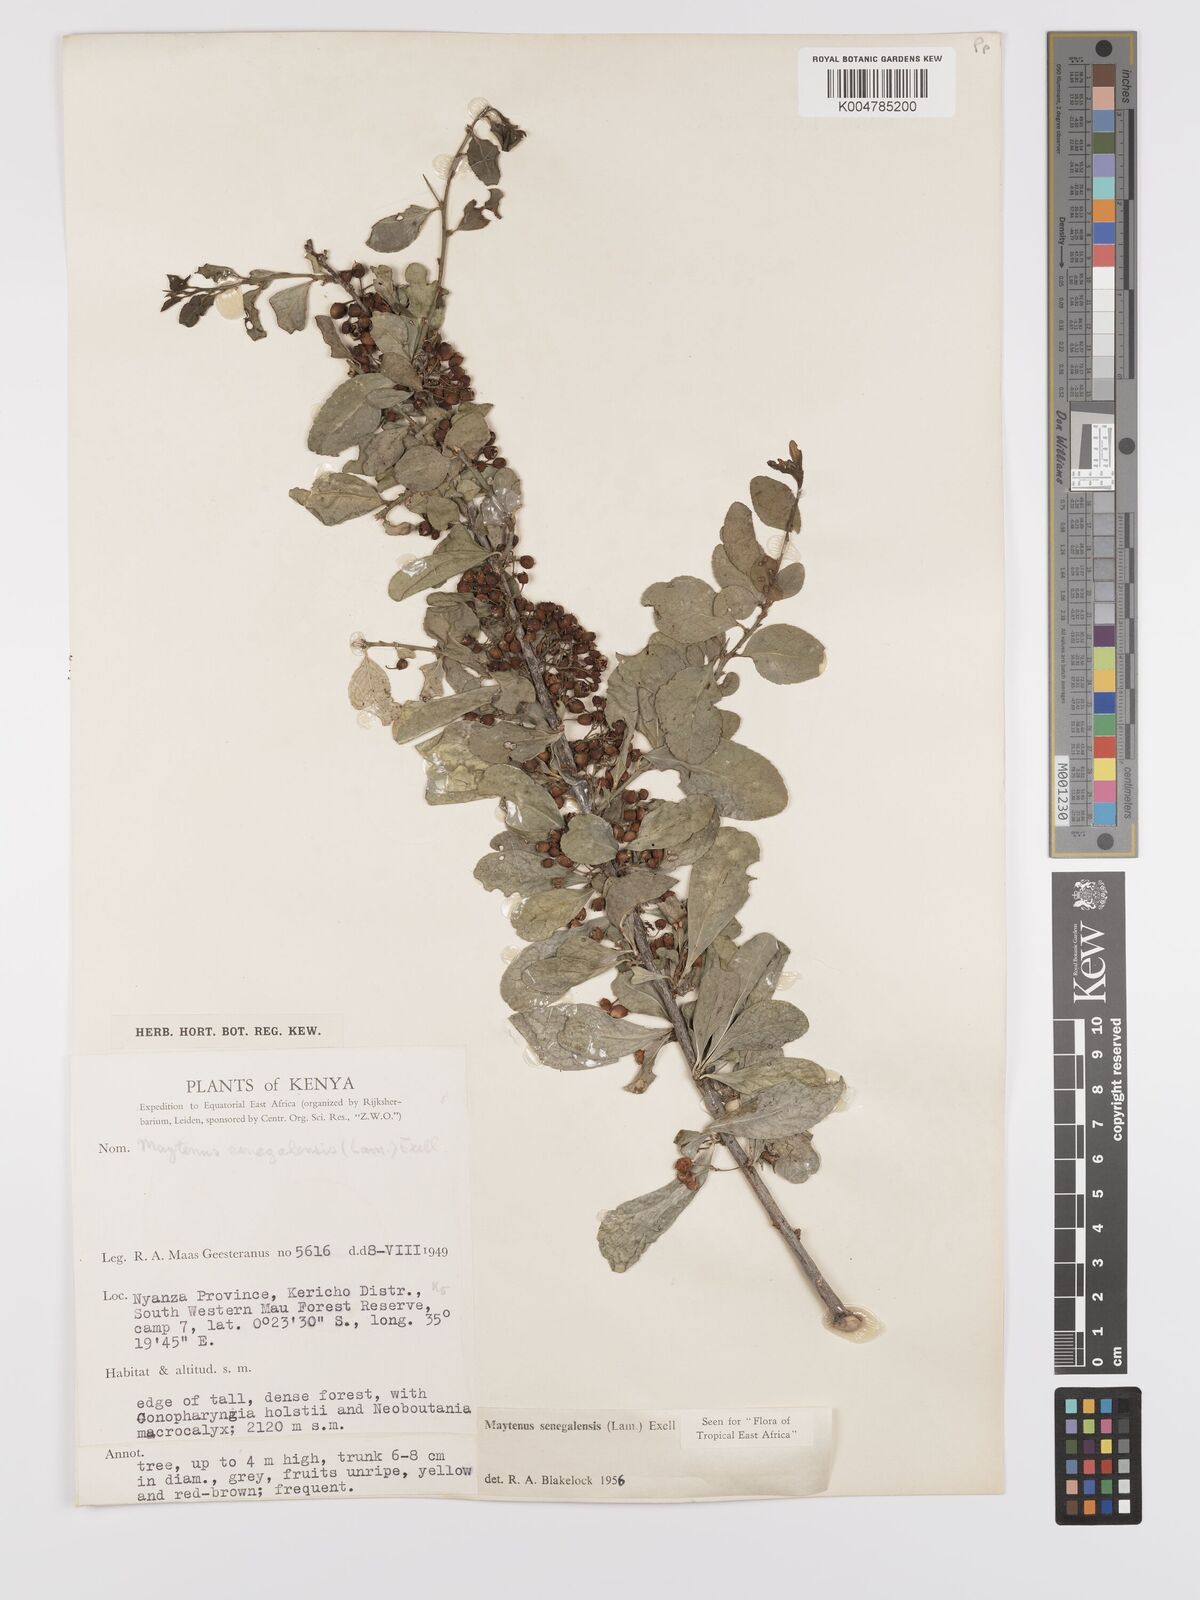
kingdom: Plantae
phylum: Tracheophyta
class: Magnoliopsida
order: Celastrales
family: Celastraceae
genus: Gymnosporia
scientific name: Gymnosporia heterophylla
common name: Angle-stem spikethorn
